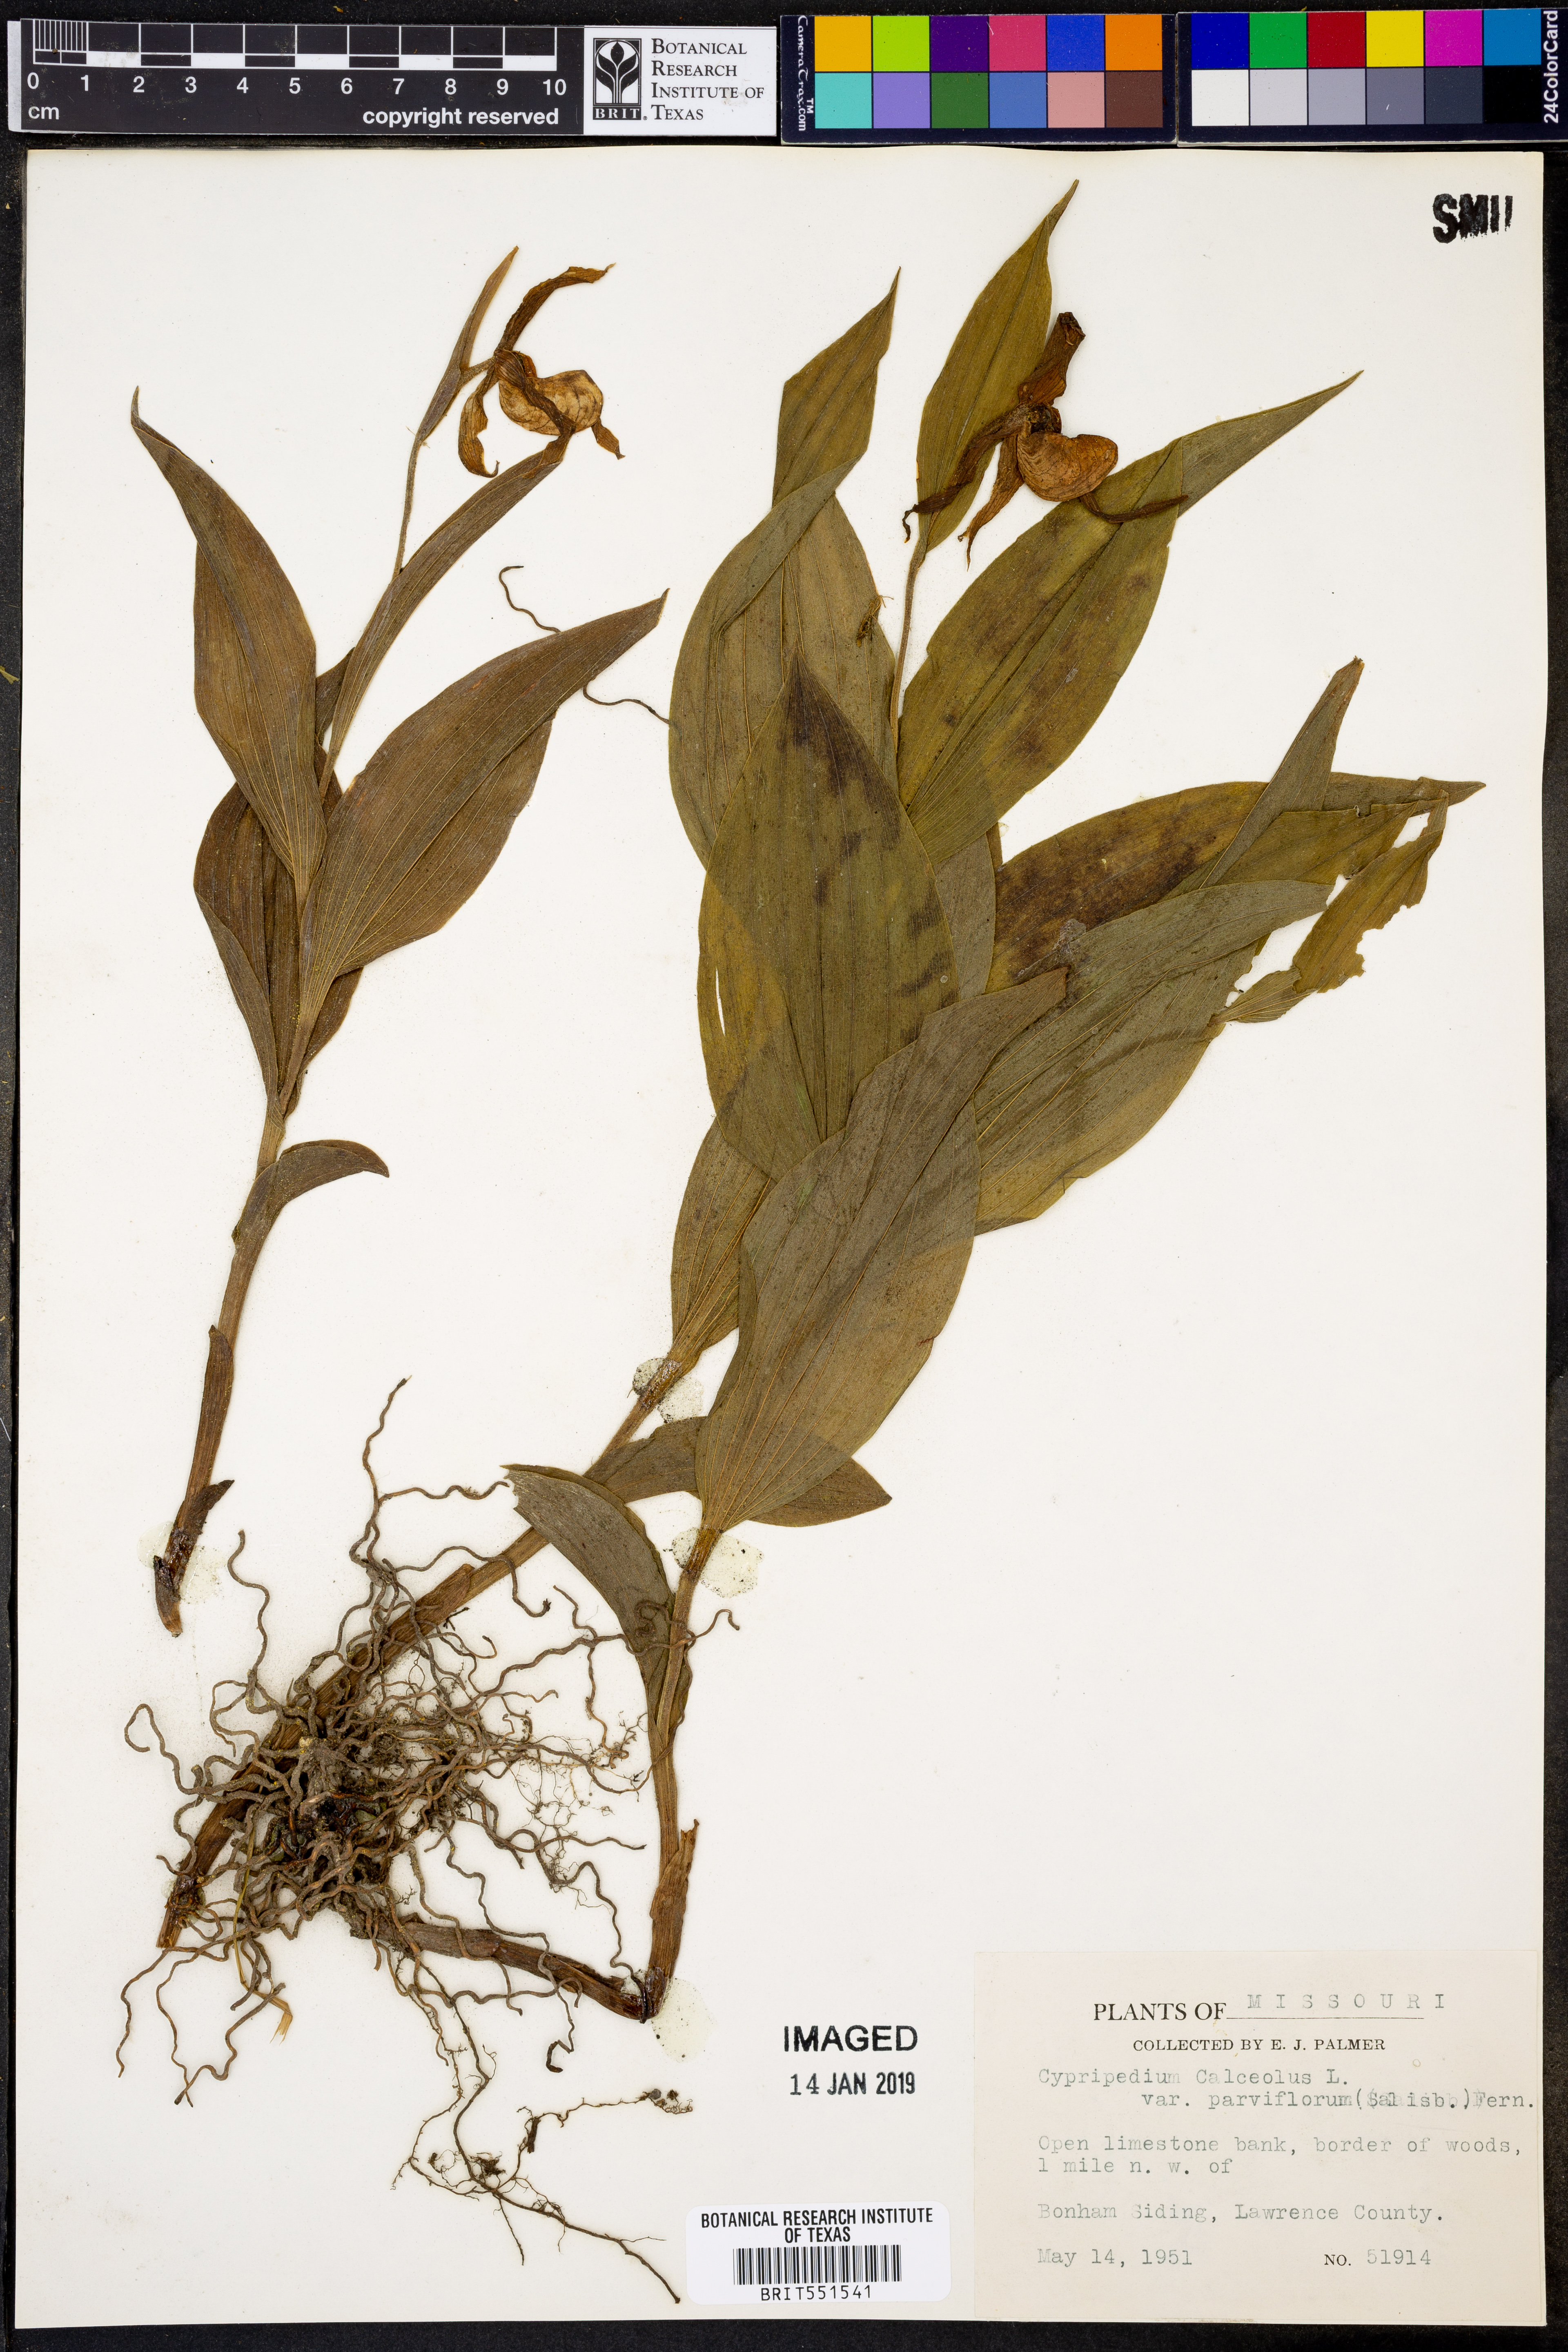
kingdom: Plantae
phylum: Tracheophyta
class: Liliopsida
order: Asparagales
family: Orchidaceae
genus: Cypripedium
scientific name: Cypripedium parviflorum
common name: American yellow lady's-slipper
